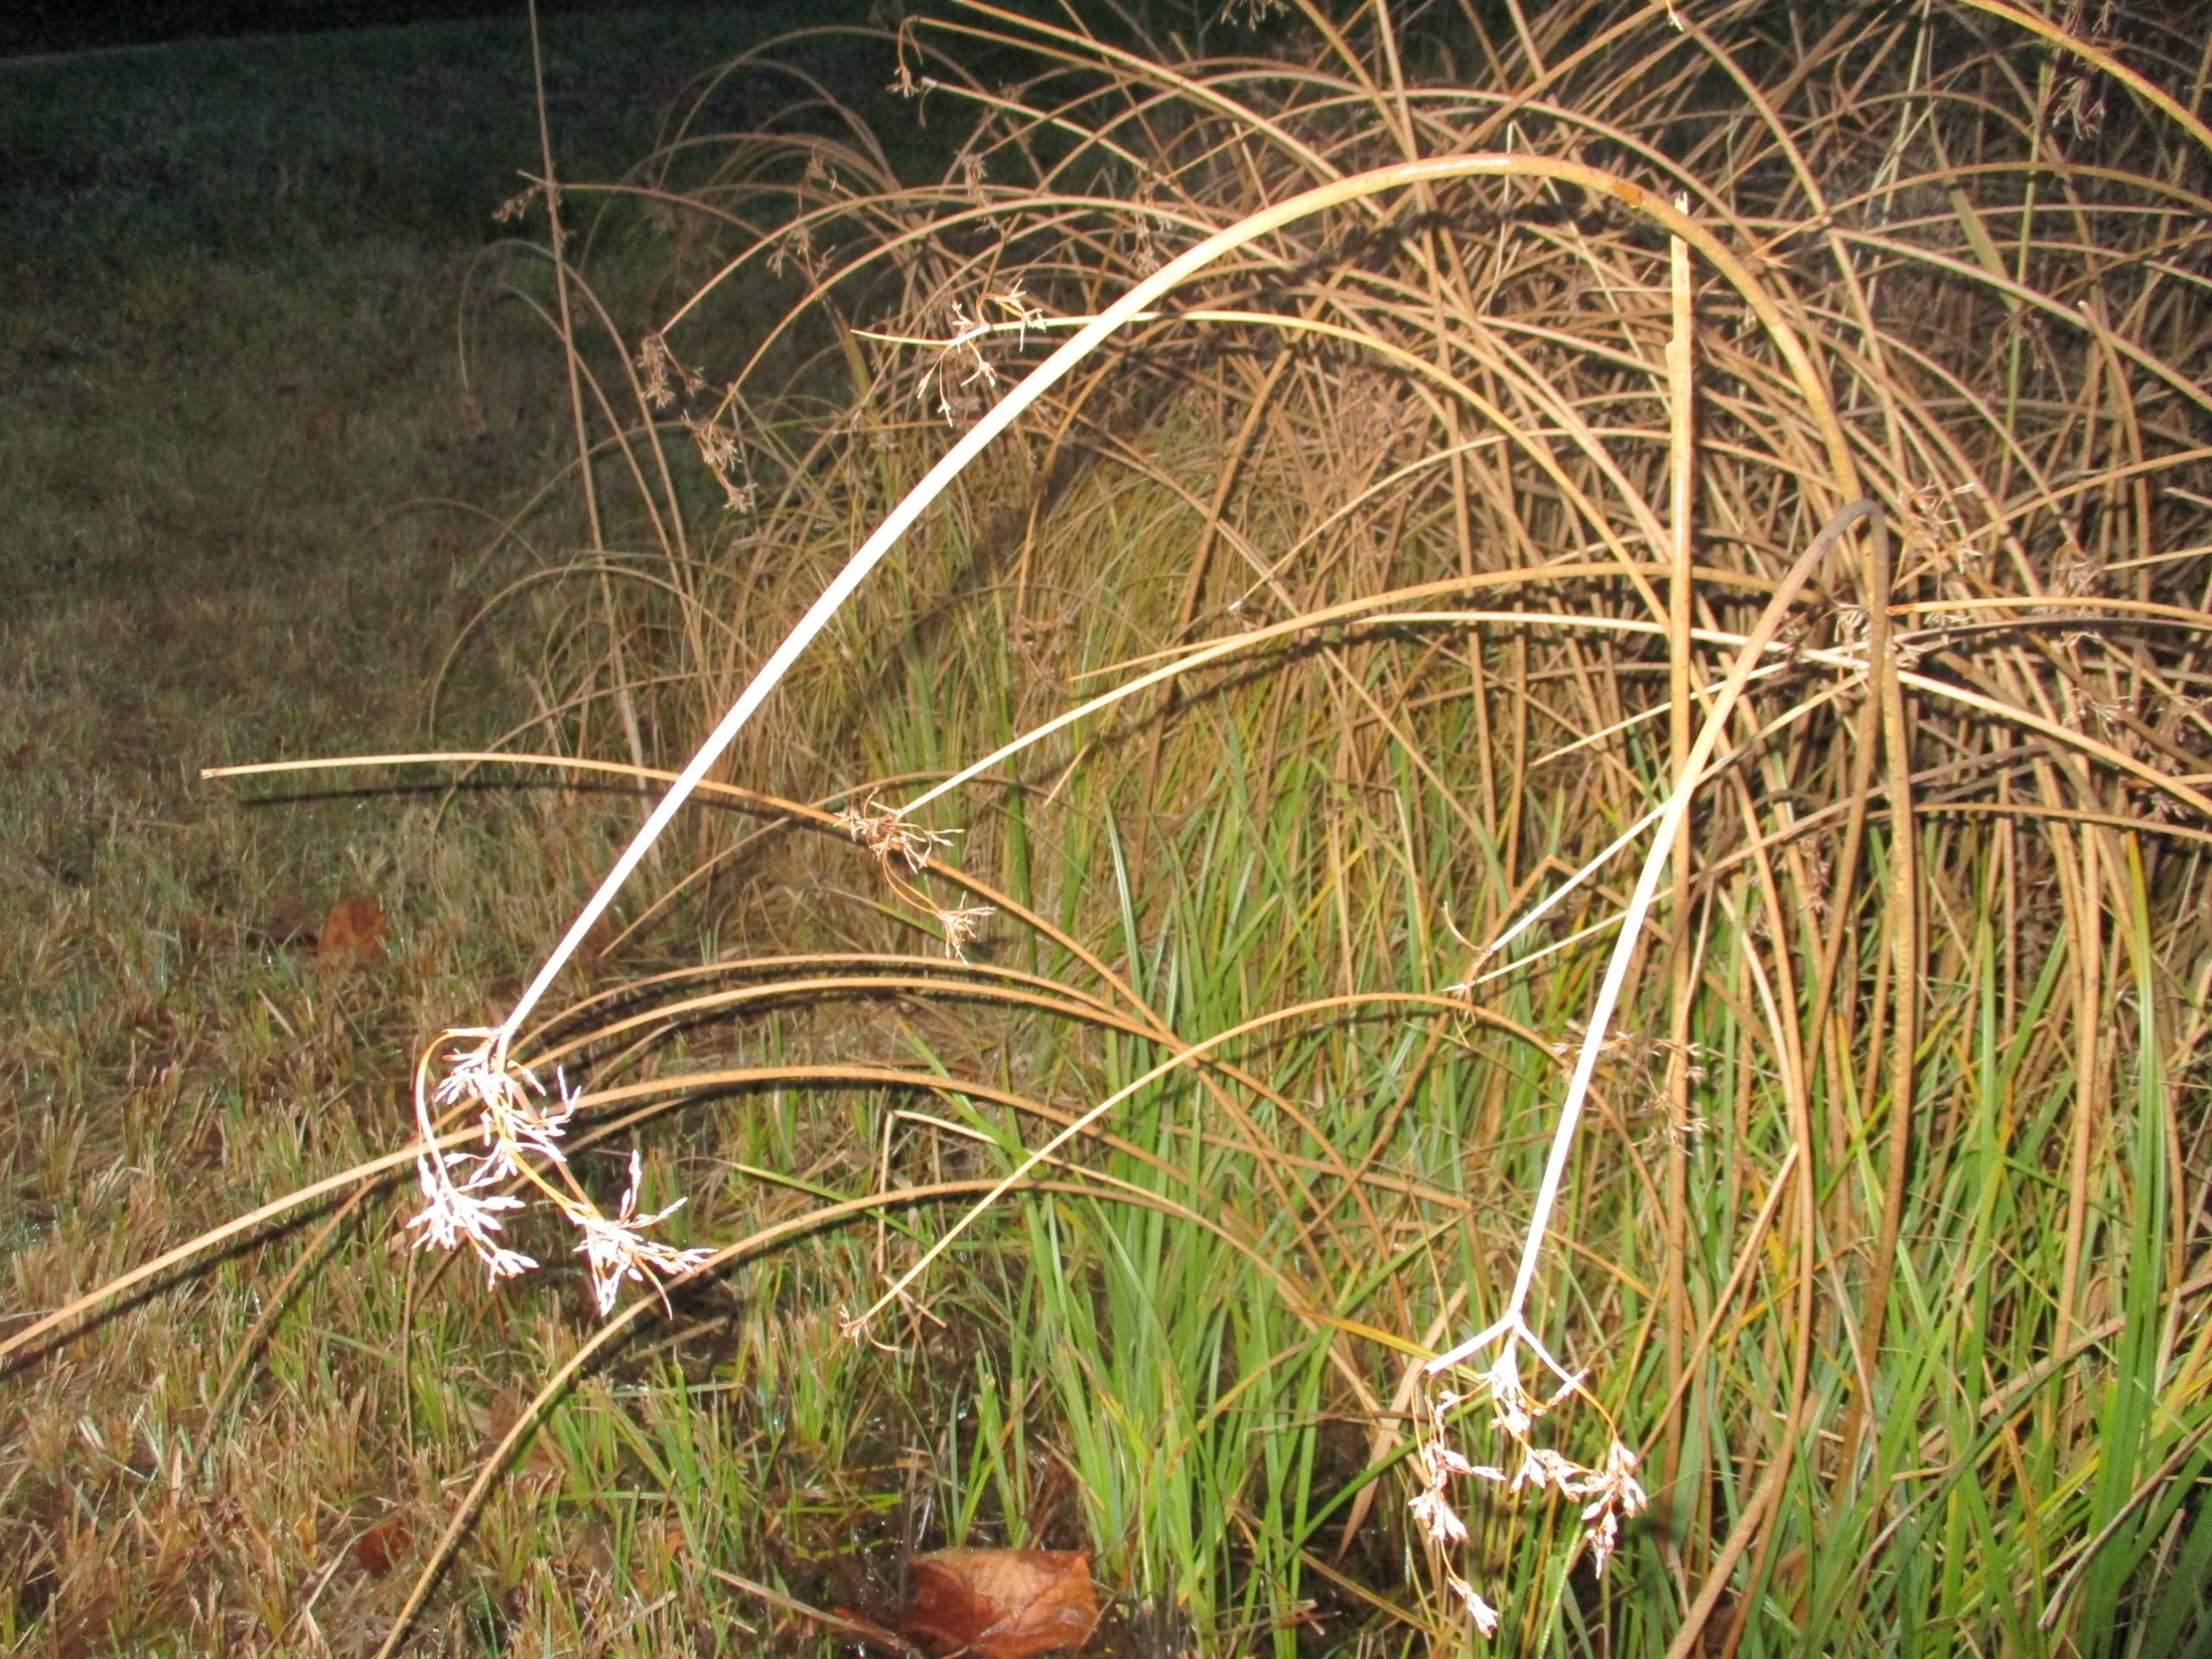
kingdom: Plantae
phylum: Tracheophyta
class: Liliopsida
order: Poales
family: Cyperaceae
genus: Schoenoplectus
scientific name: Schoenoplectus lacustris
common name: Sø-kogleaks
